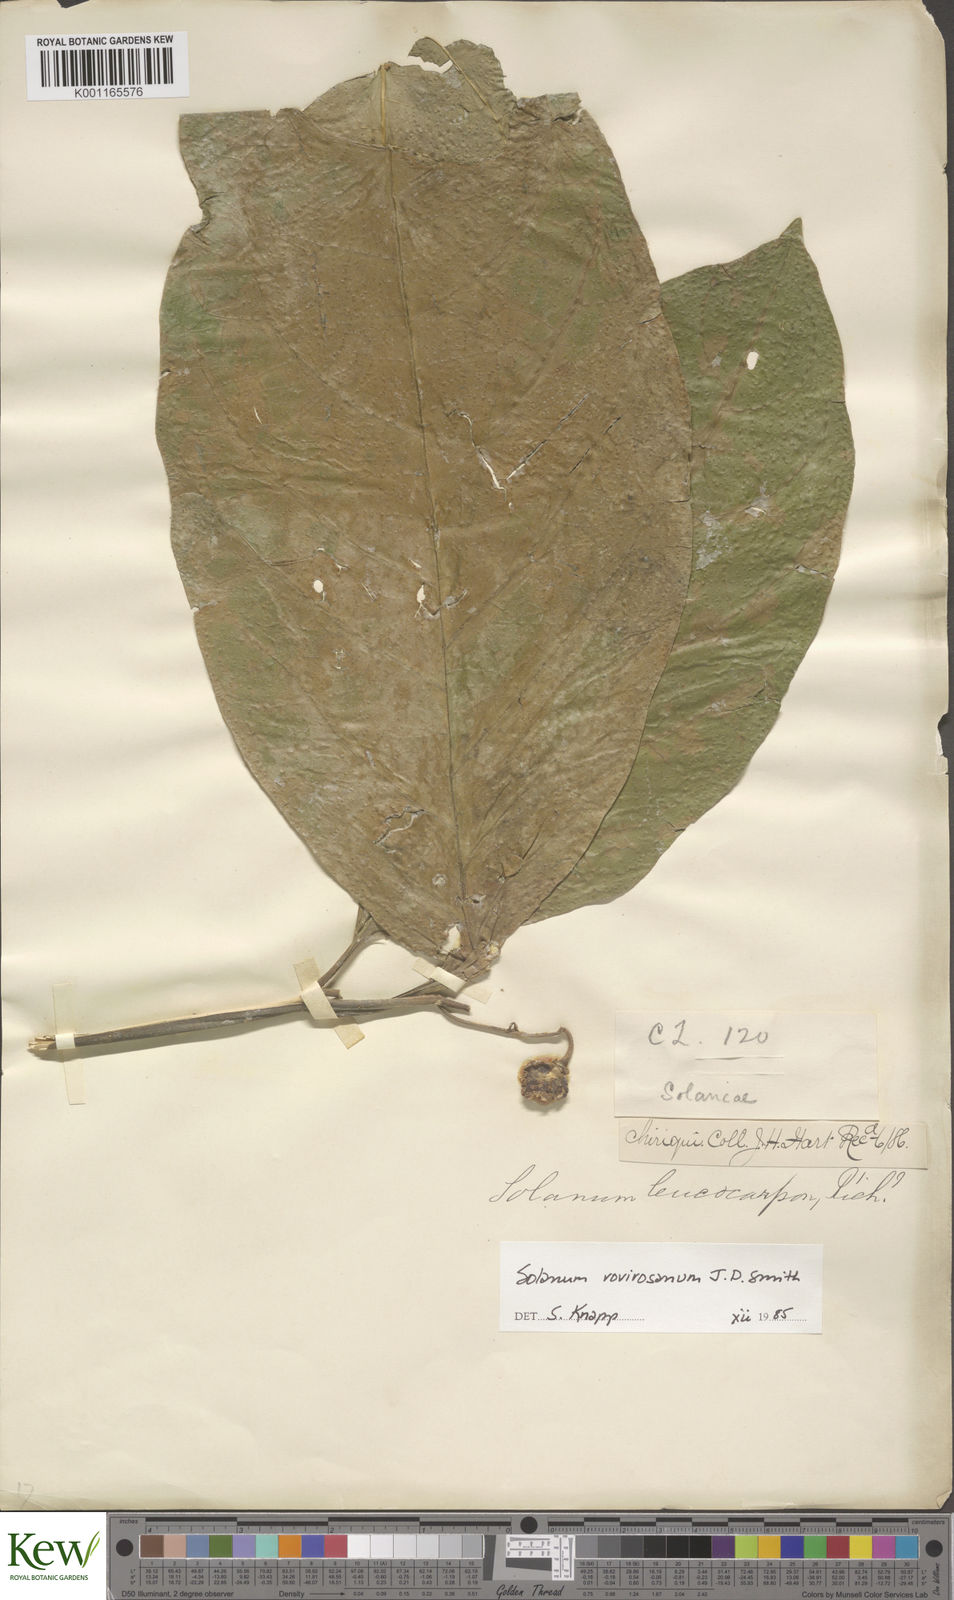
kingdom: Plantae
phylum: Tracheophyta
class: Magnoliopsida
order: Solanales
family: Solanaceae
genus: Solanum
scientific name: Solanum rovirosanum
